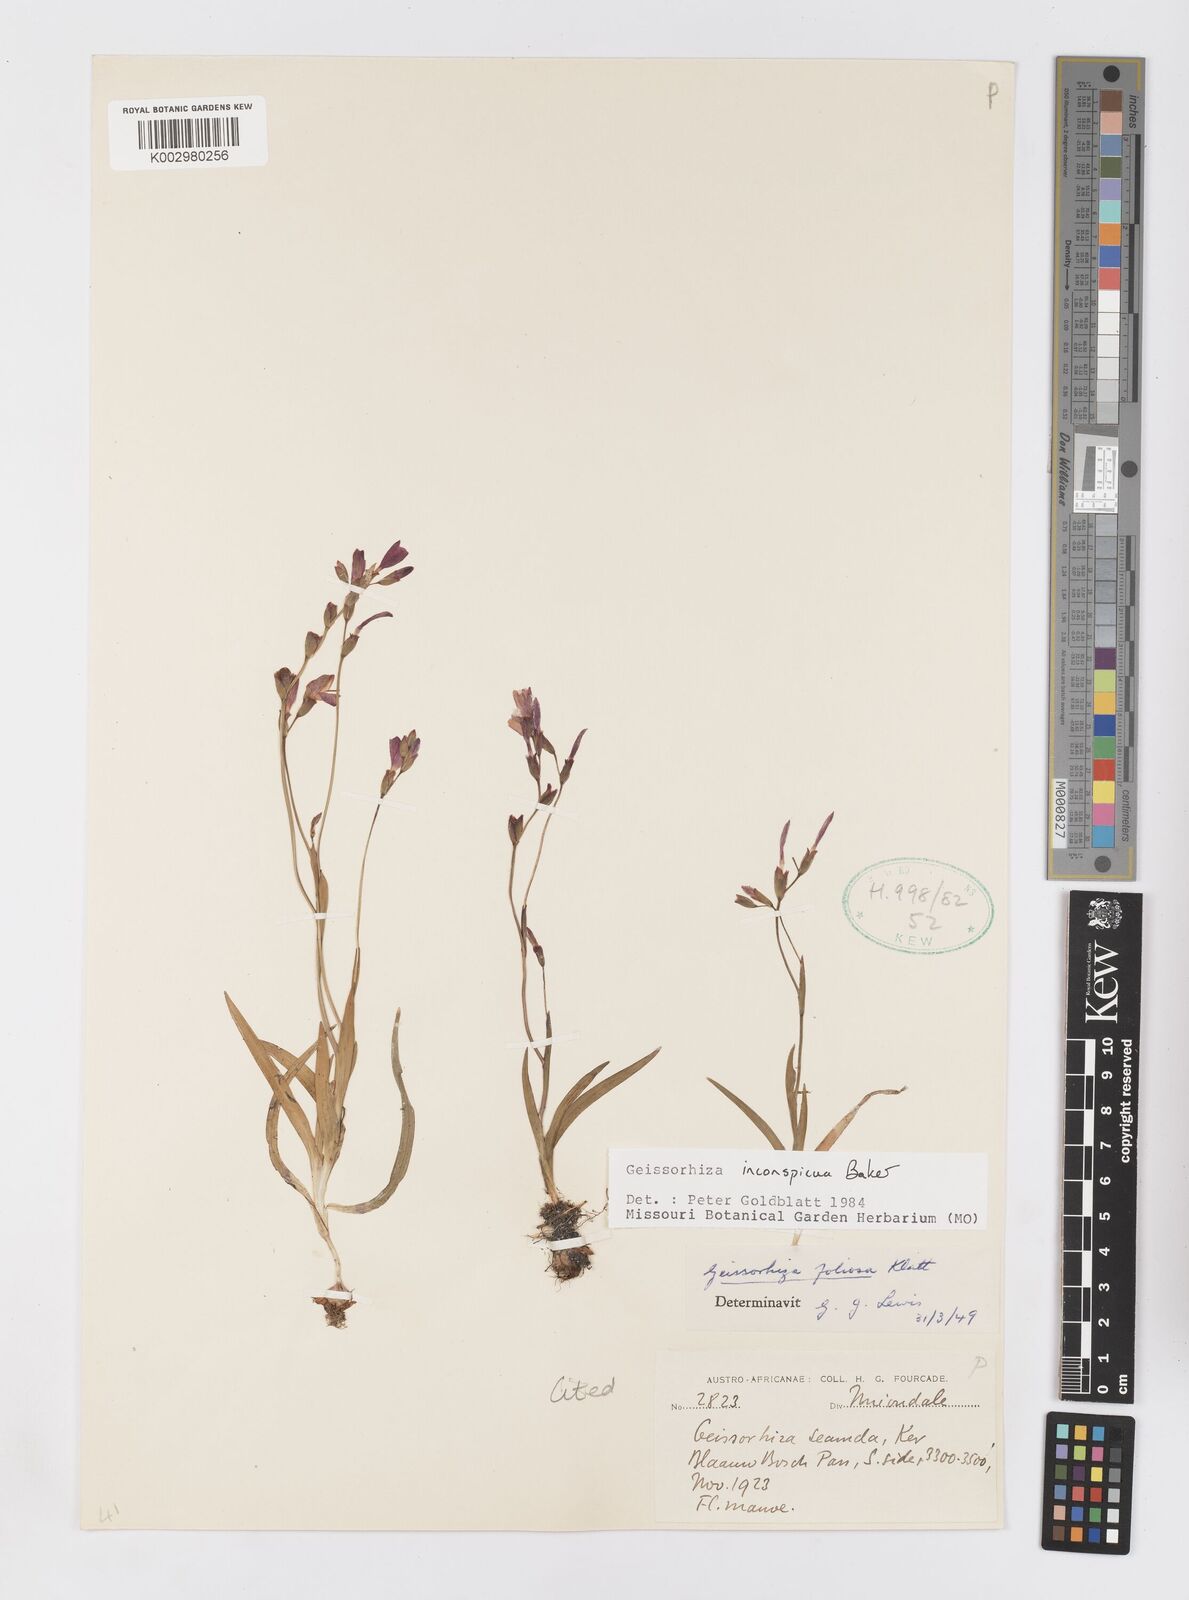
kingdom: Plantae
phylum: Tracheophyta
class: Liliopsida
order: Asparagales
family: Iridaceae
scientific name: Iridaceae
